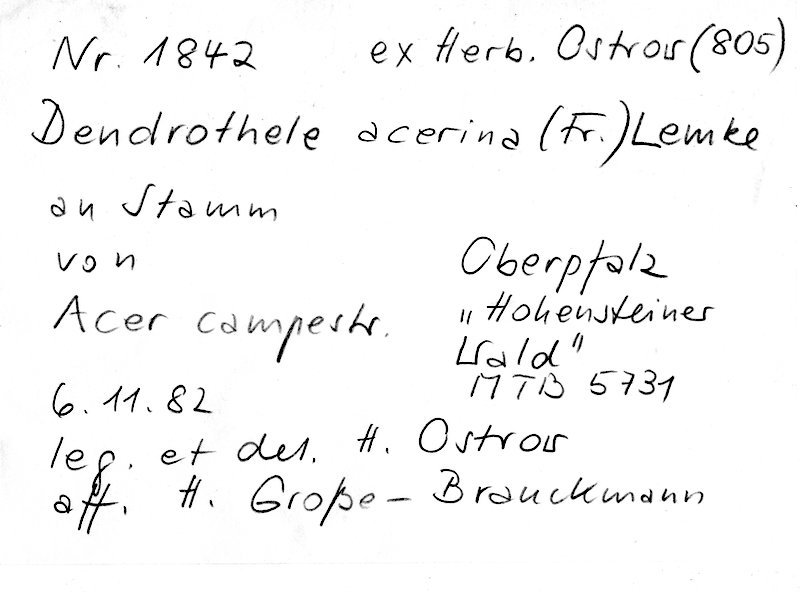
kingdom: Fungi
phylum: Basidiomycota
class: Agaricomycetes
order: Agaricales
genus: Dendrothele
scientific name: Dendrothele acerina
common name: Maple whitewash
